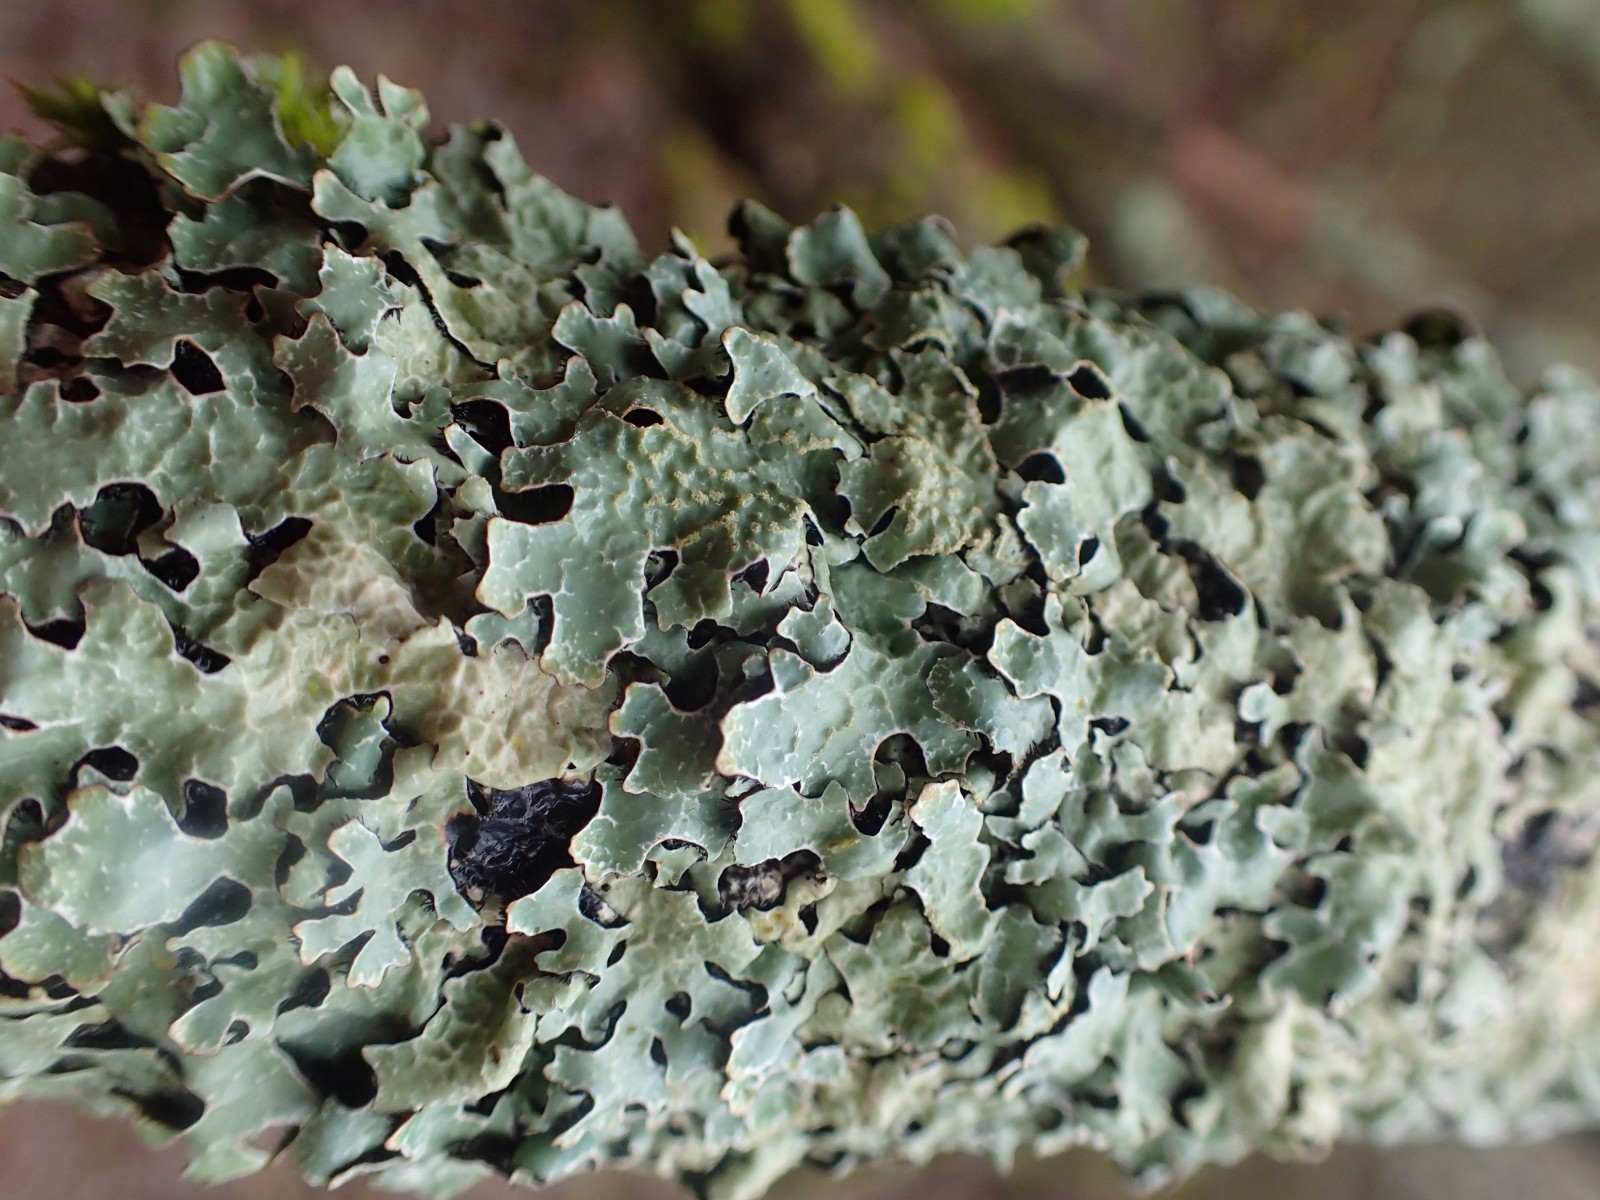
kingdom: Fungi
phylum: Ascomycota
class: Lecanoromycetes
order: Lecanorales
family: Parmeliaceae
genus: Parmelia
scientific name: Parmelia sulcata
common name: rynket skållav
